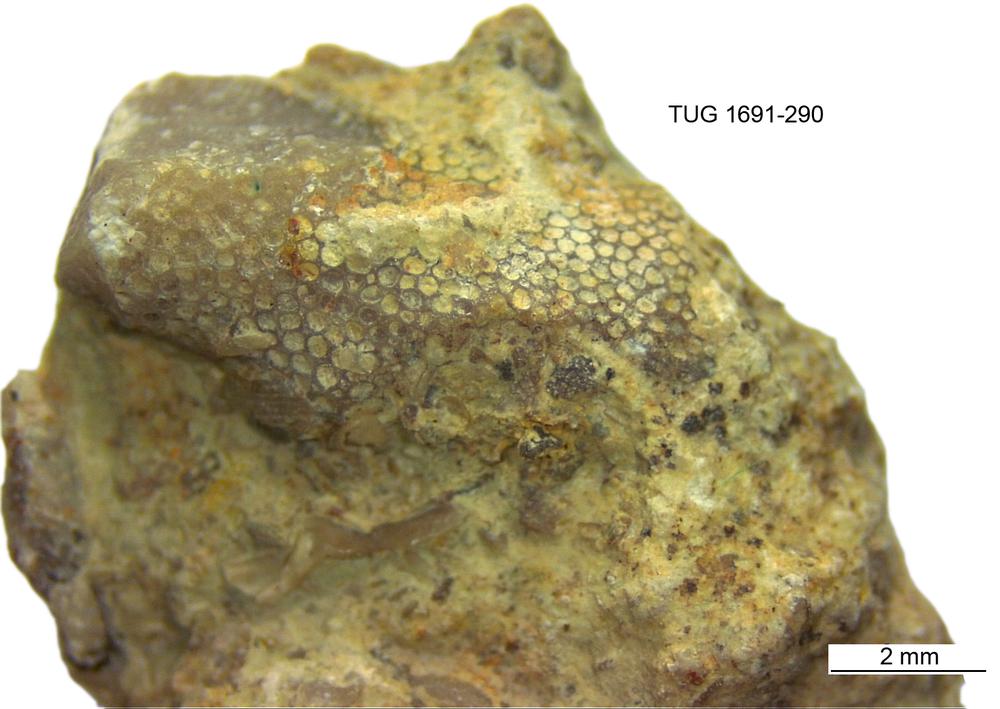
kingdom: Animalia
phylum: Bryozoa
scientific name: Bryozoa
